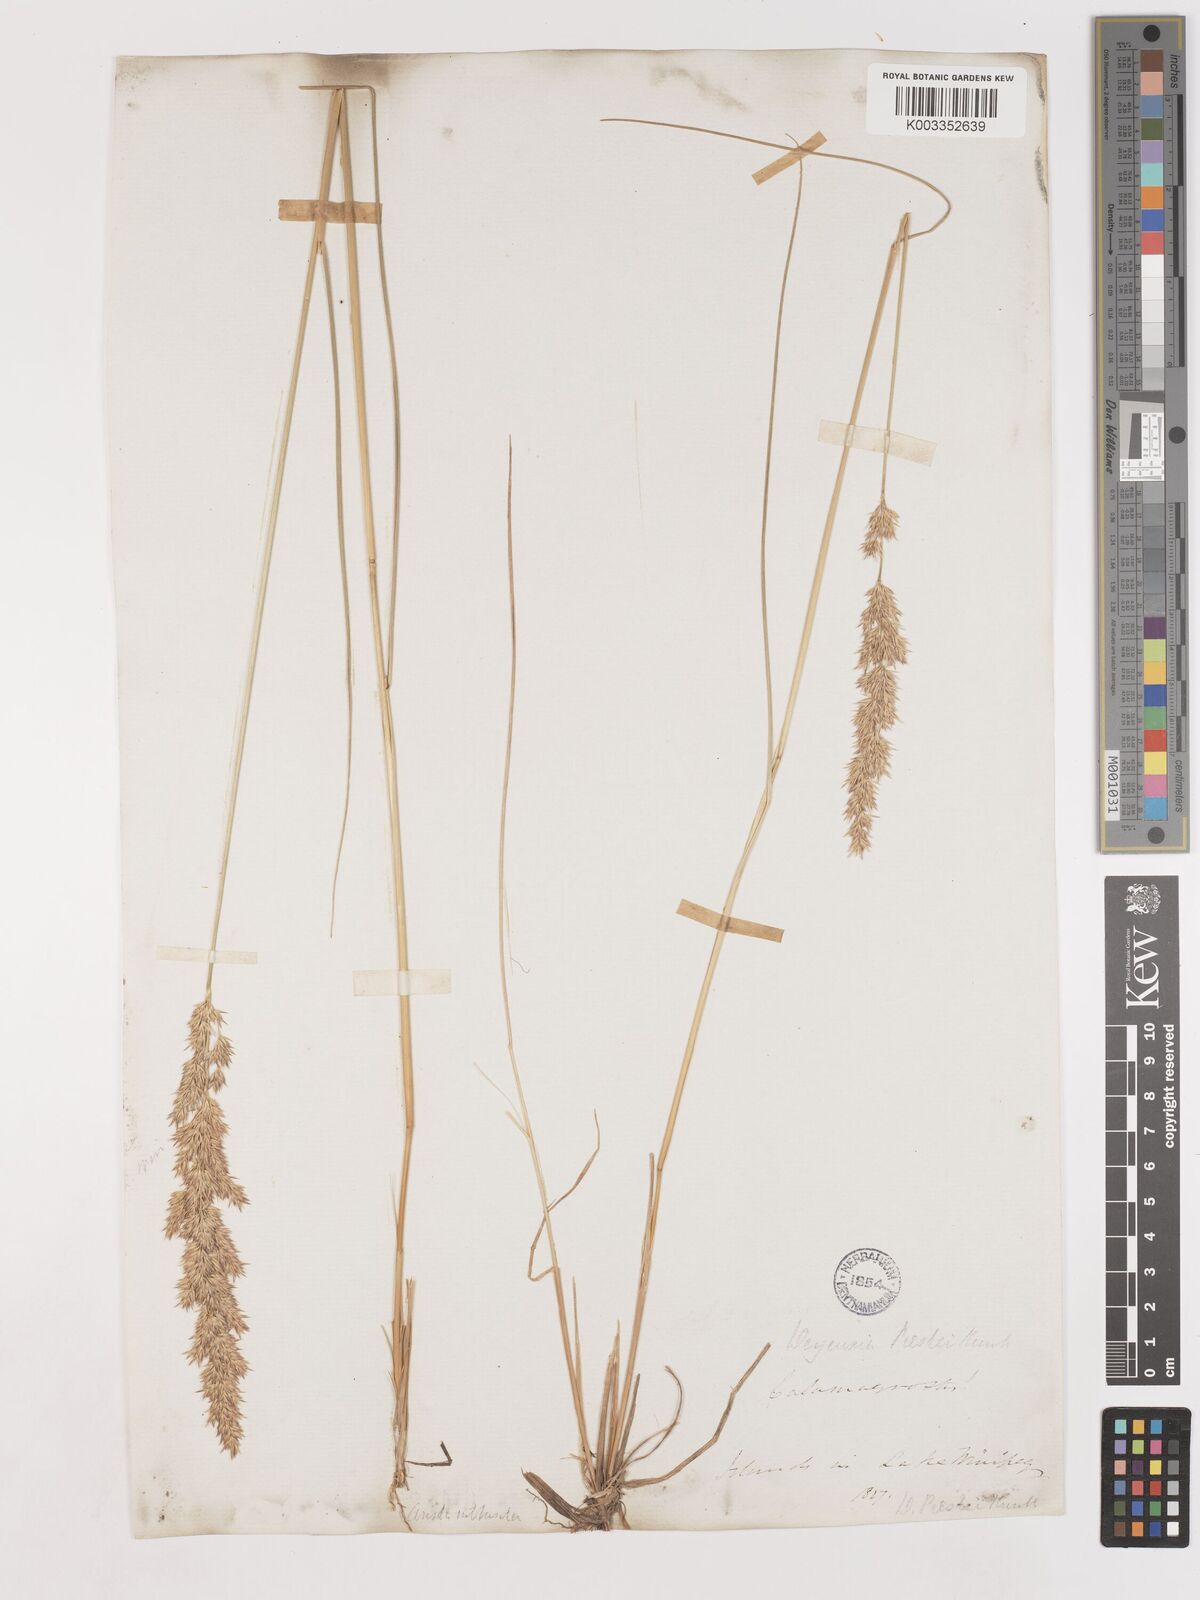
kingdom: Plantae
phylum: Tracheophyta
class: Liliopsida
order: Poales
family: Poaceae
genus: Calamagrostis
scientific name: Calamagrostis canadensis
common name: Canada bluejoint
